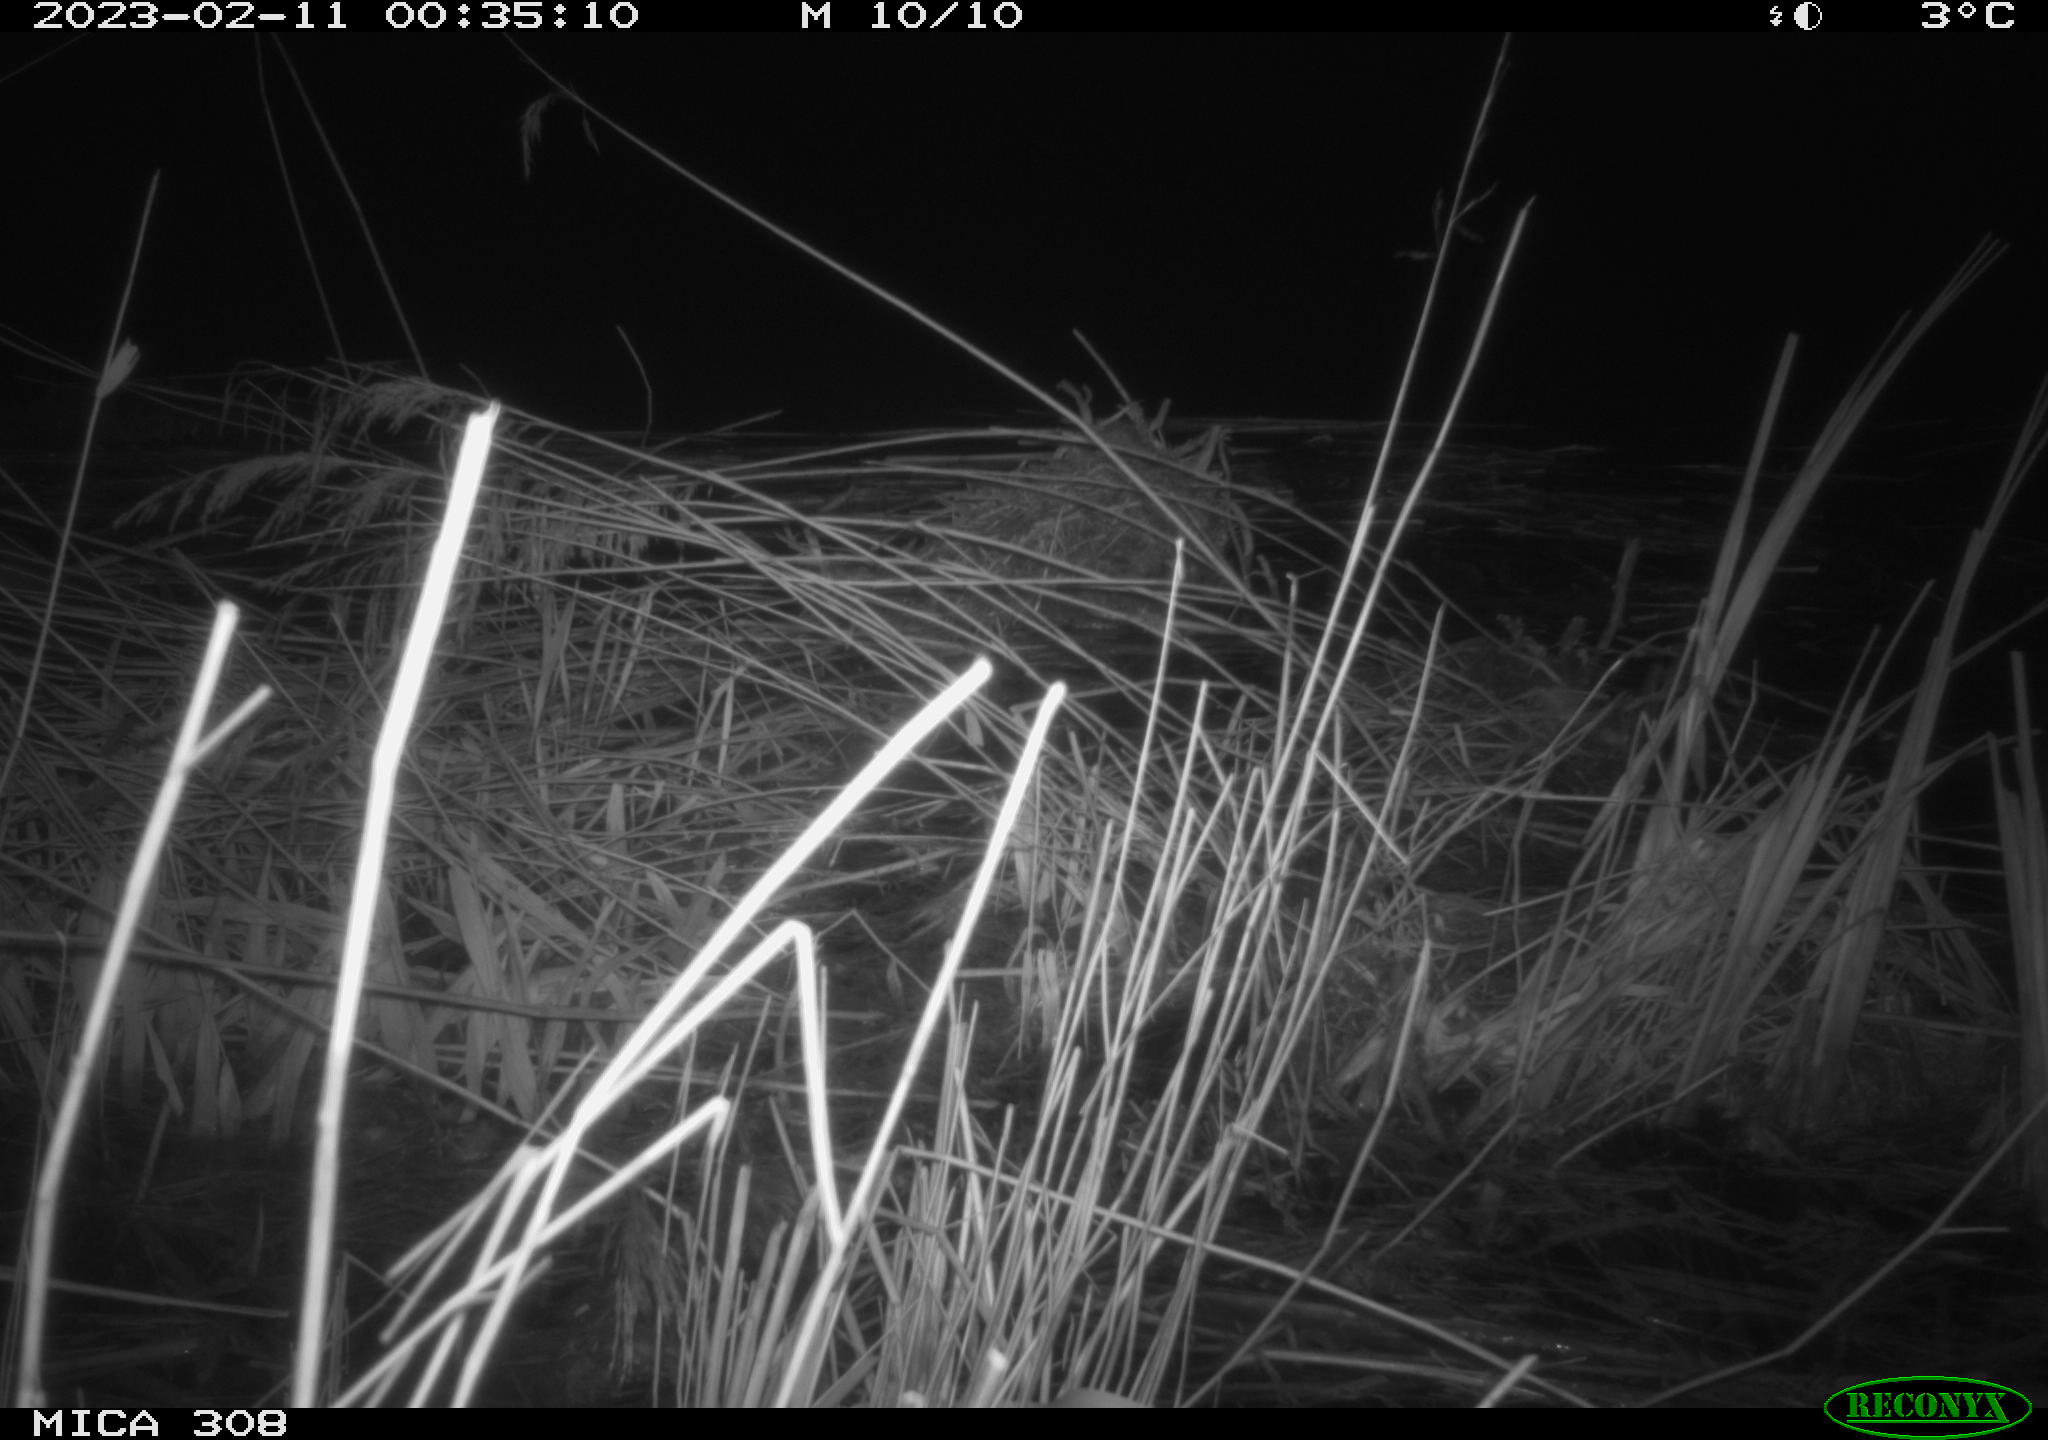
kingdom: Animalia
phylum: Chordata
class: Mammalia
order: Rodentia
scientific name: Rodentia
